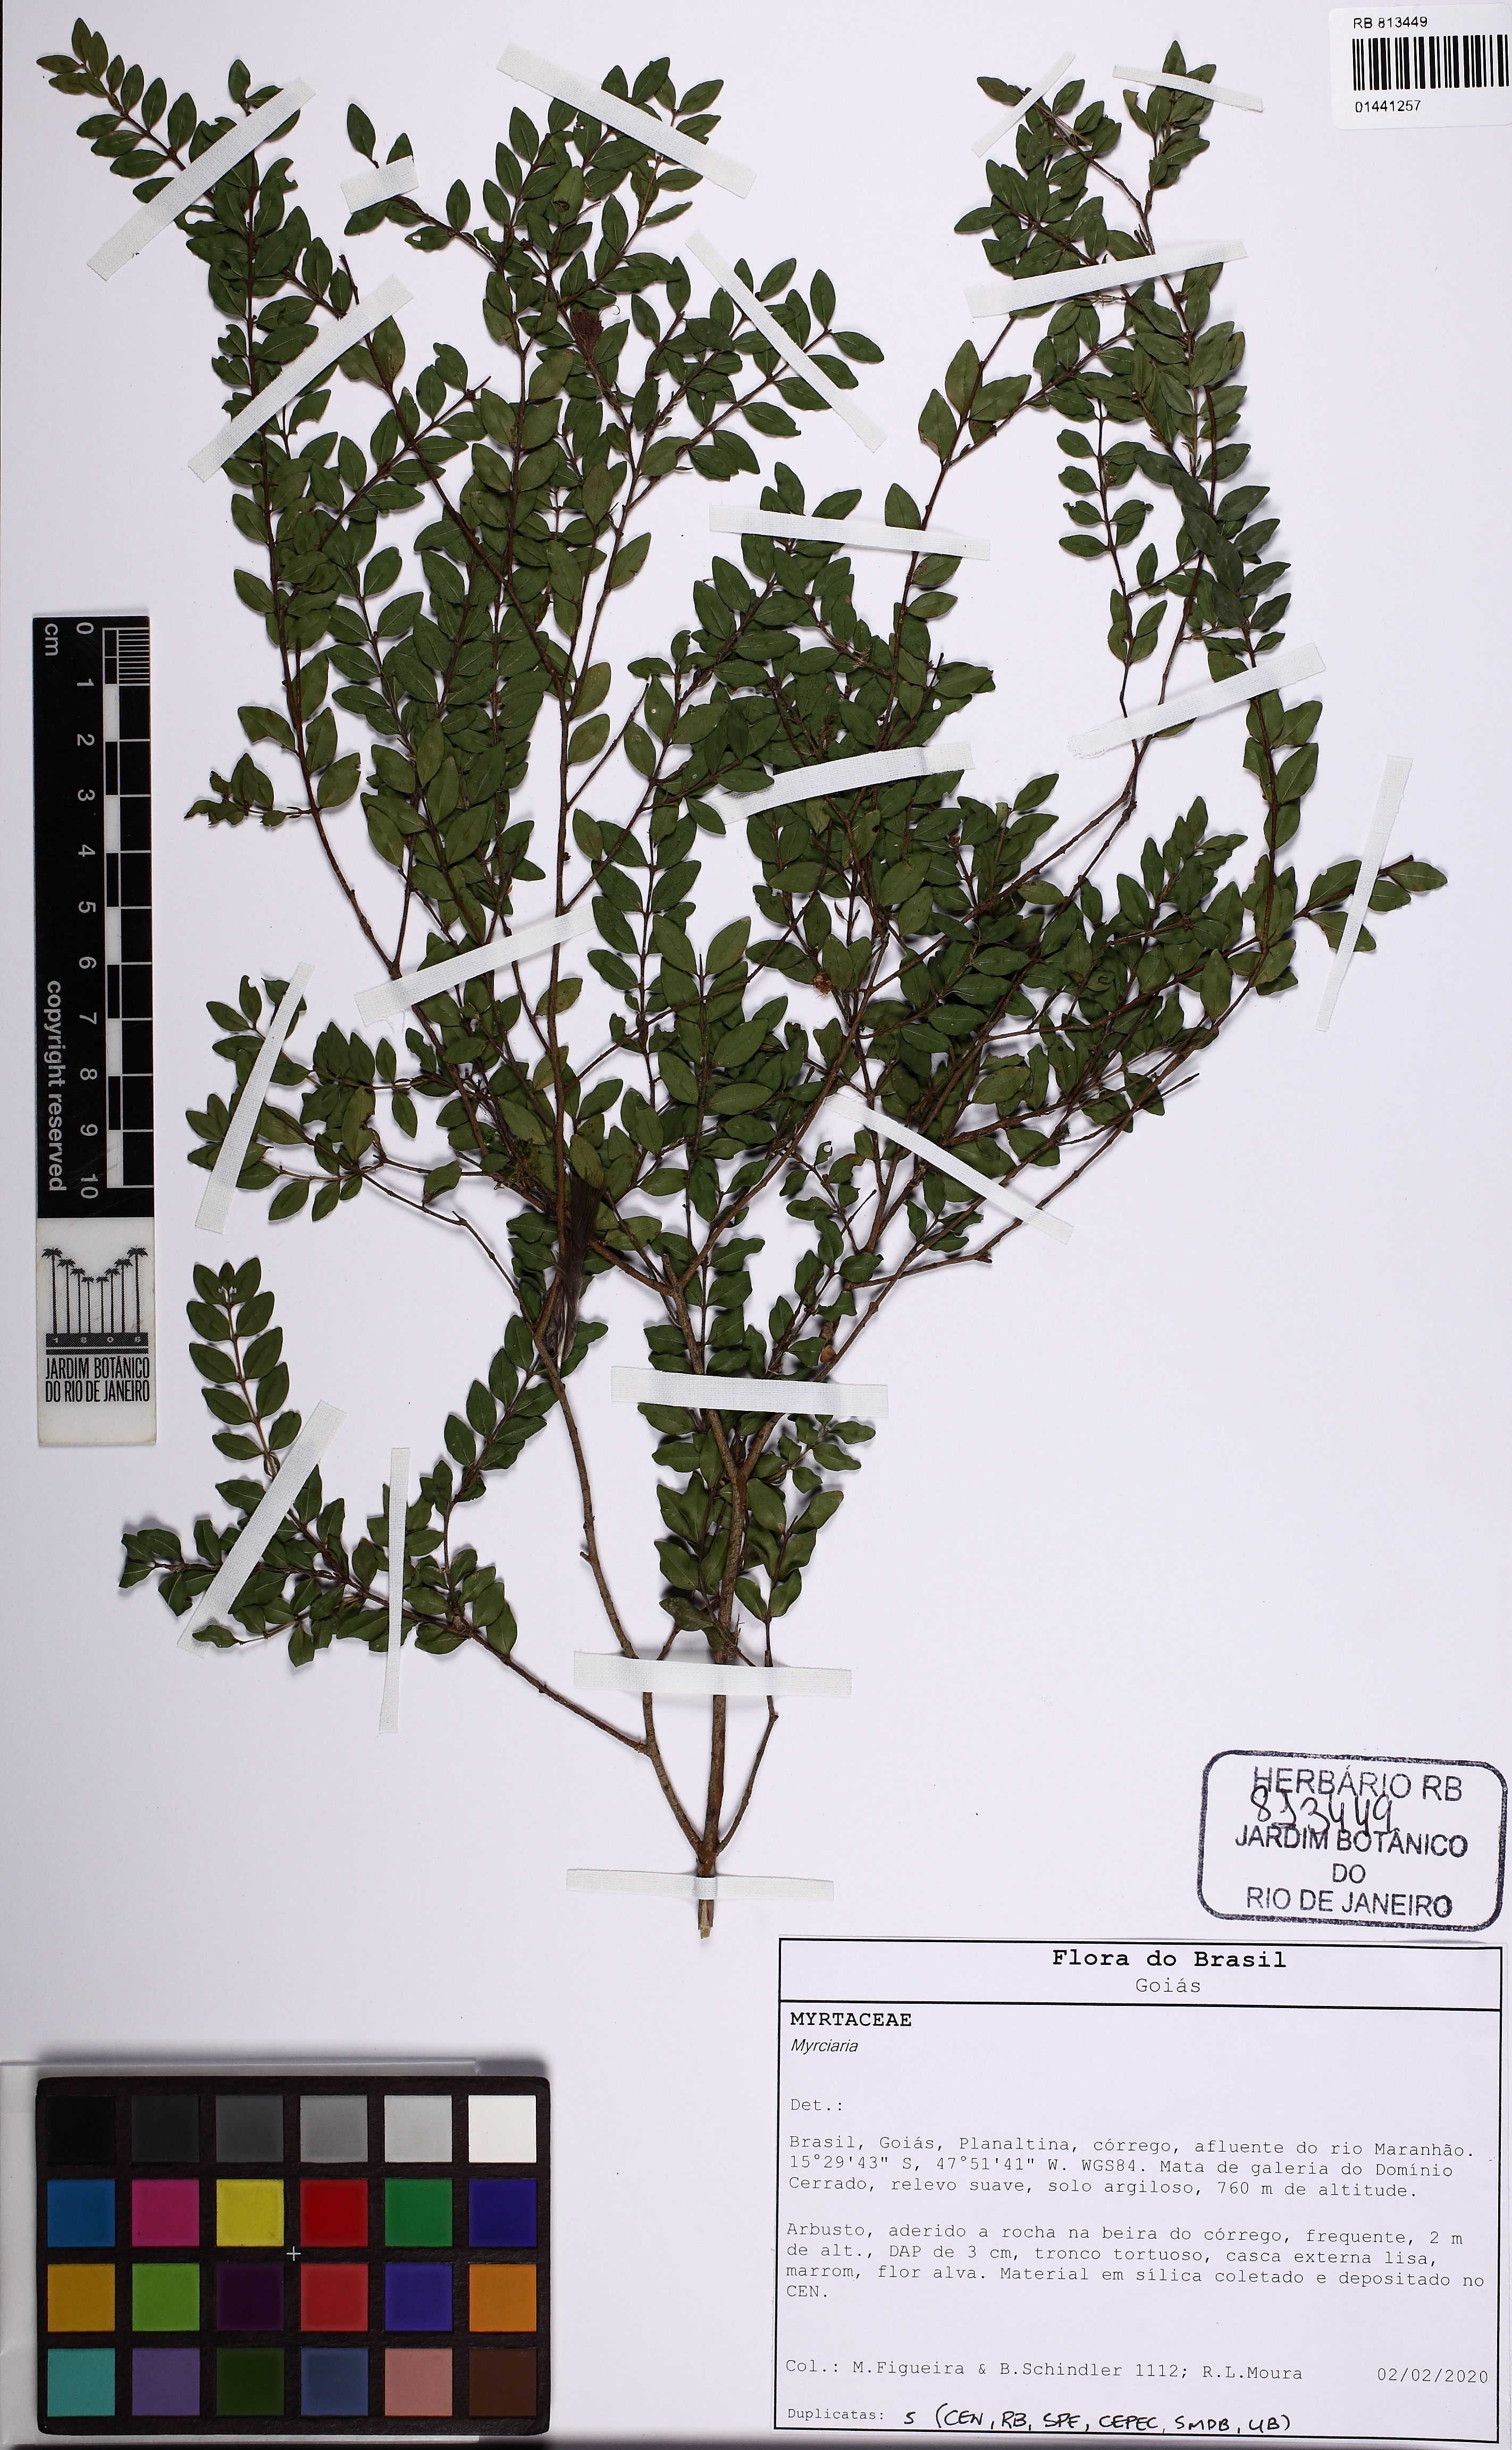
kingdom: Plantae
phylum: Tracheophyta
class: Magnoliopsida
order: Myrtales
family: Myrtaceae
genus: Myrciaria
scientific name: Myrciaria
